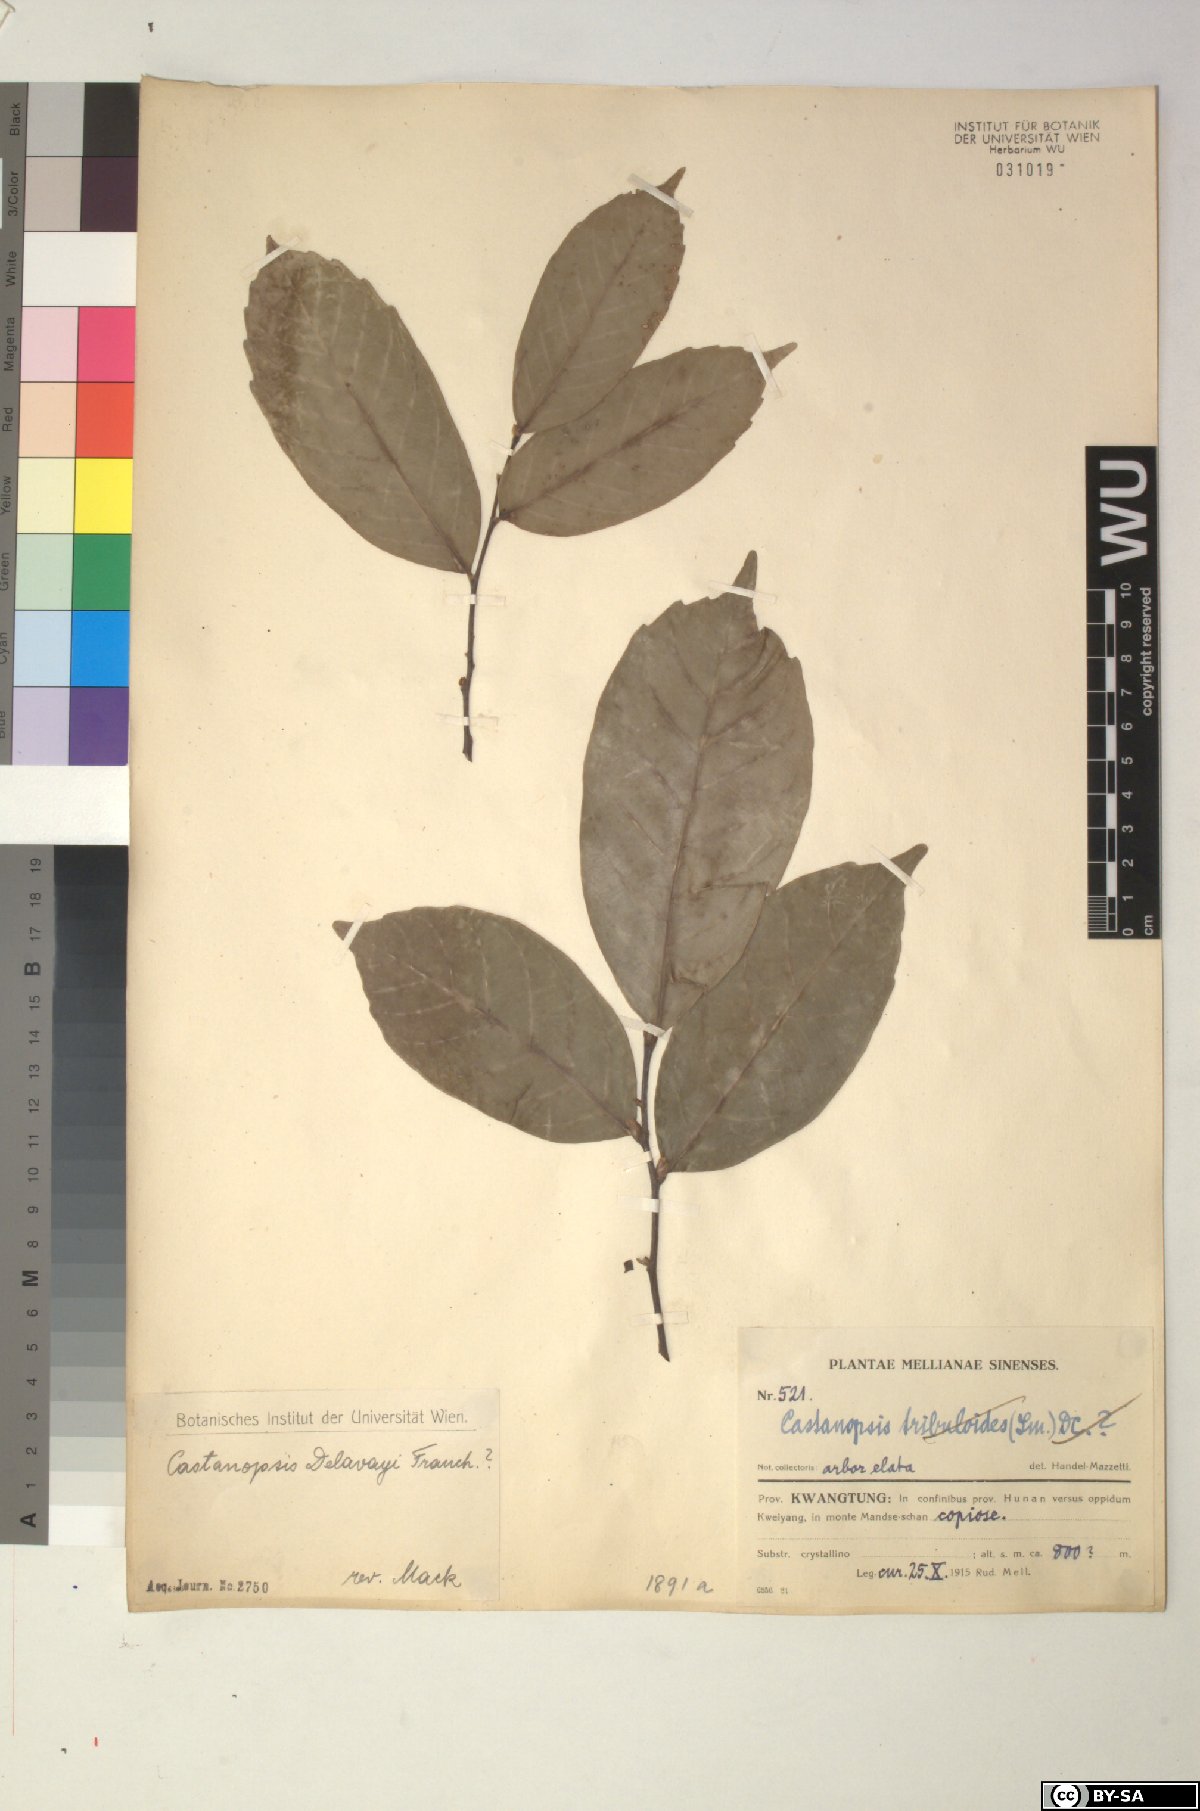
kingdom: Plantae
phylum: Tracheophyta
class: Magnoliopsida
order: Fagales
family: Fagaceae
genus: Castanopsis
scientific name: Castanopsis delavayi
